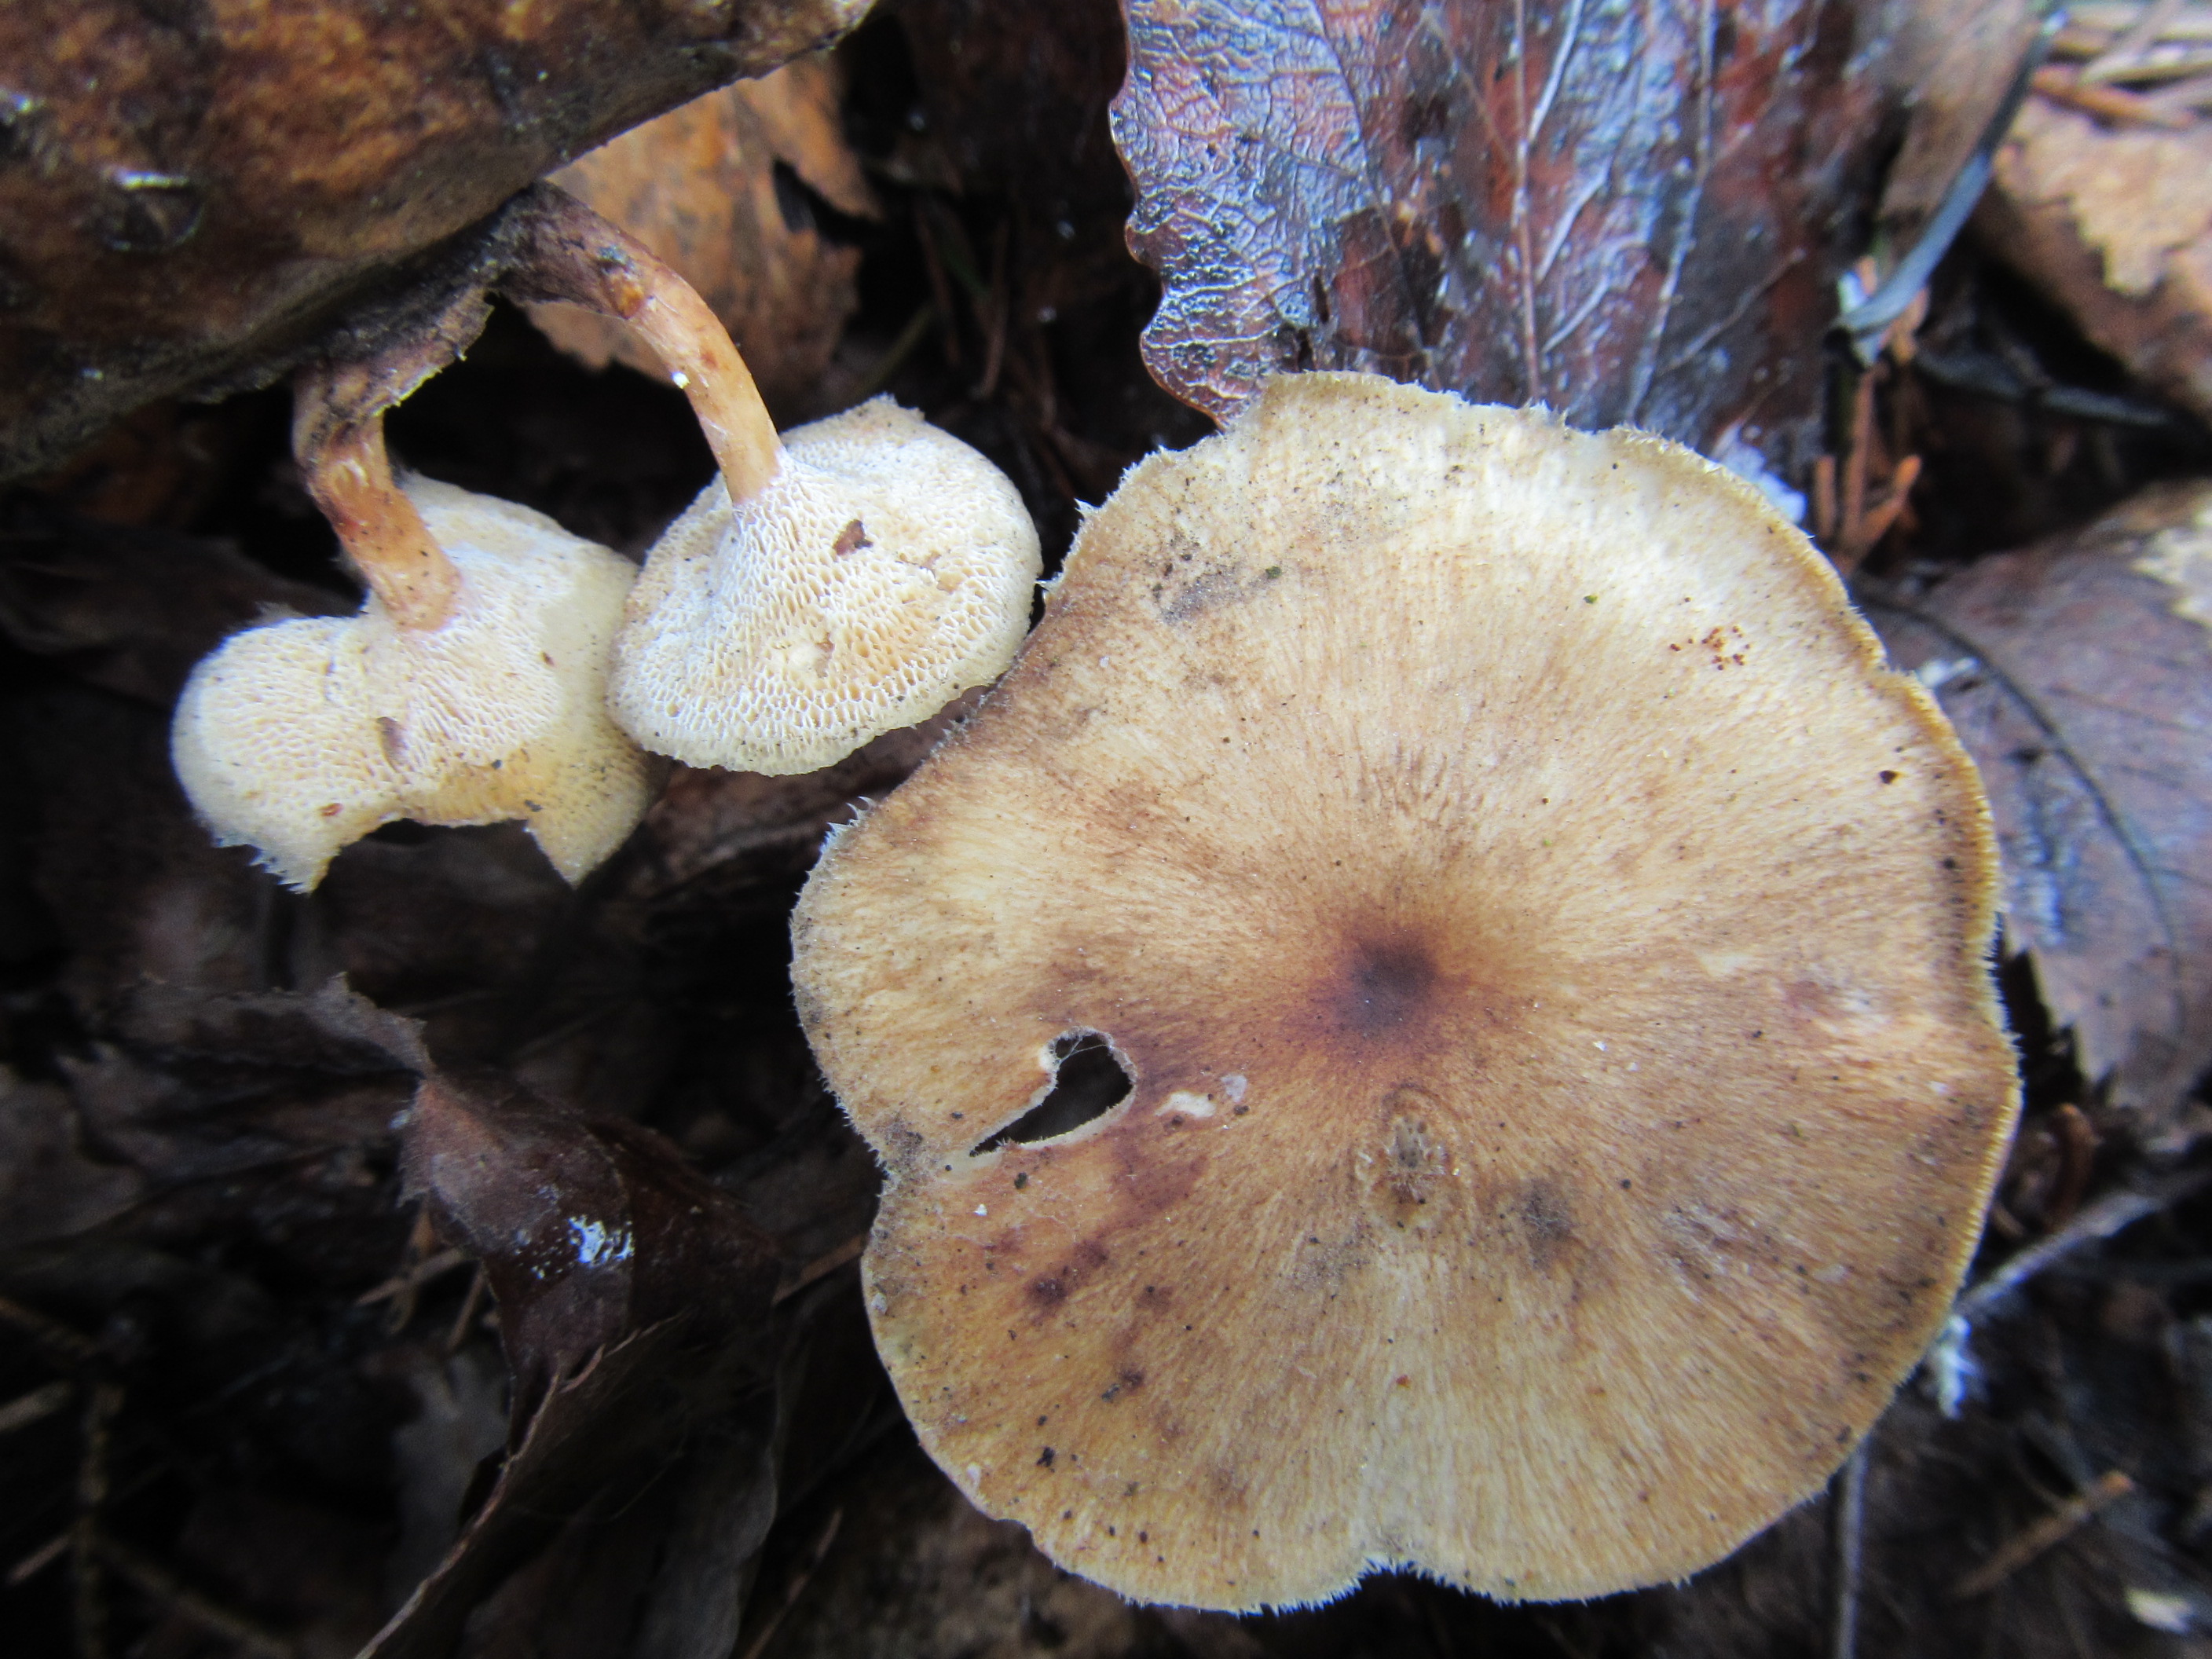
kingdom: Fungi
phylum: Basidiomycota
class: Agaricomycetes
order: Polyporales
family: Polyporaceae
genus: Lentinus
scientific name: Lentinus brumalis
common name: Winter polypore
